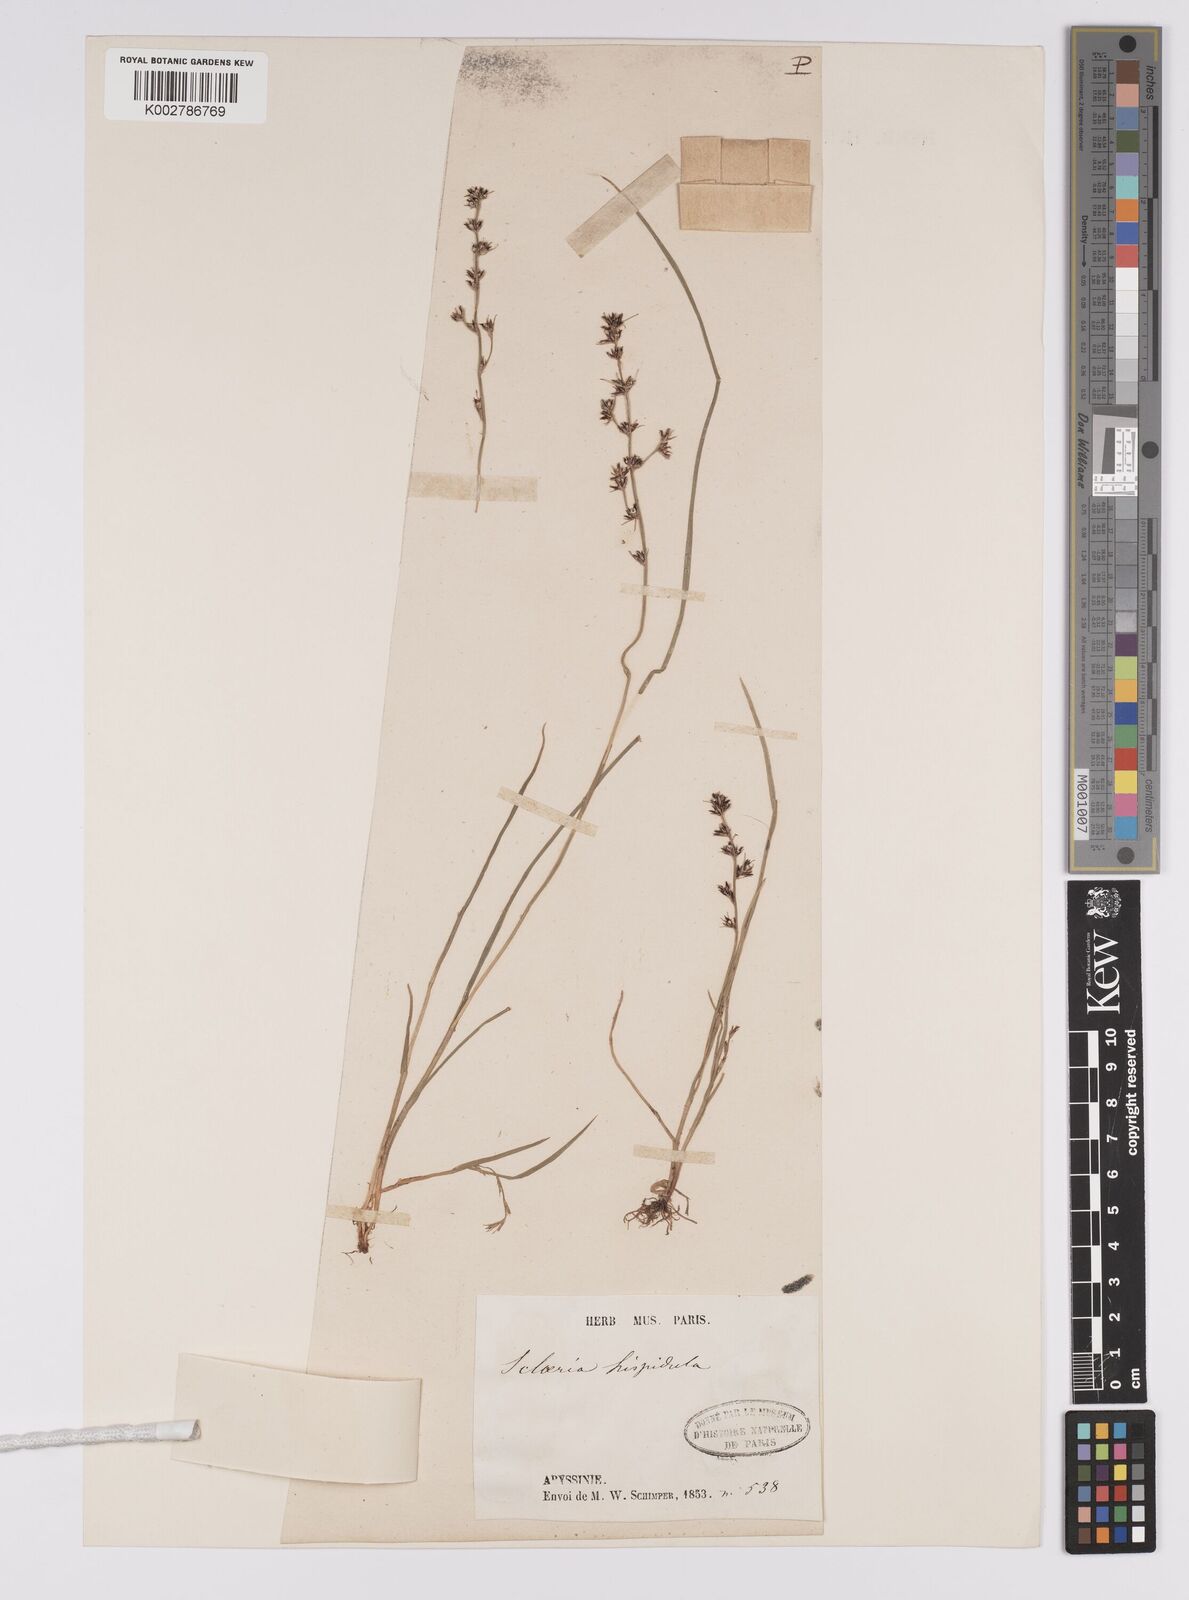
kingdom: Plantae
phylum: Tracheophyta
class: Liliopsida
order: Poales
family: Cyperaceae
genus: Scleria
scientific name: Scleria hispidula
